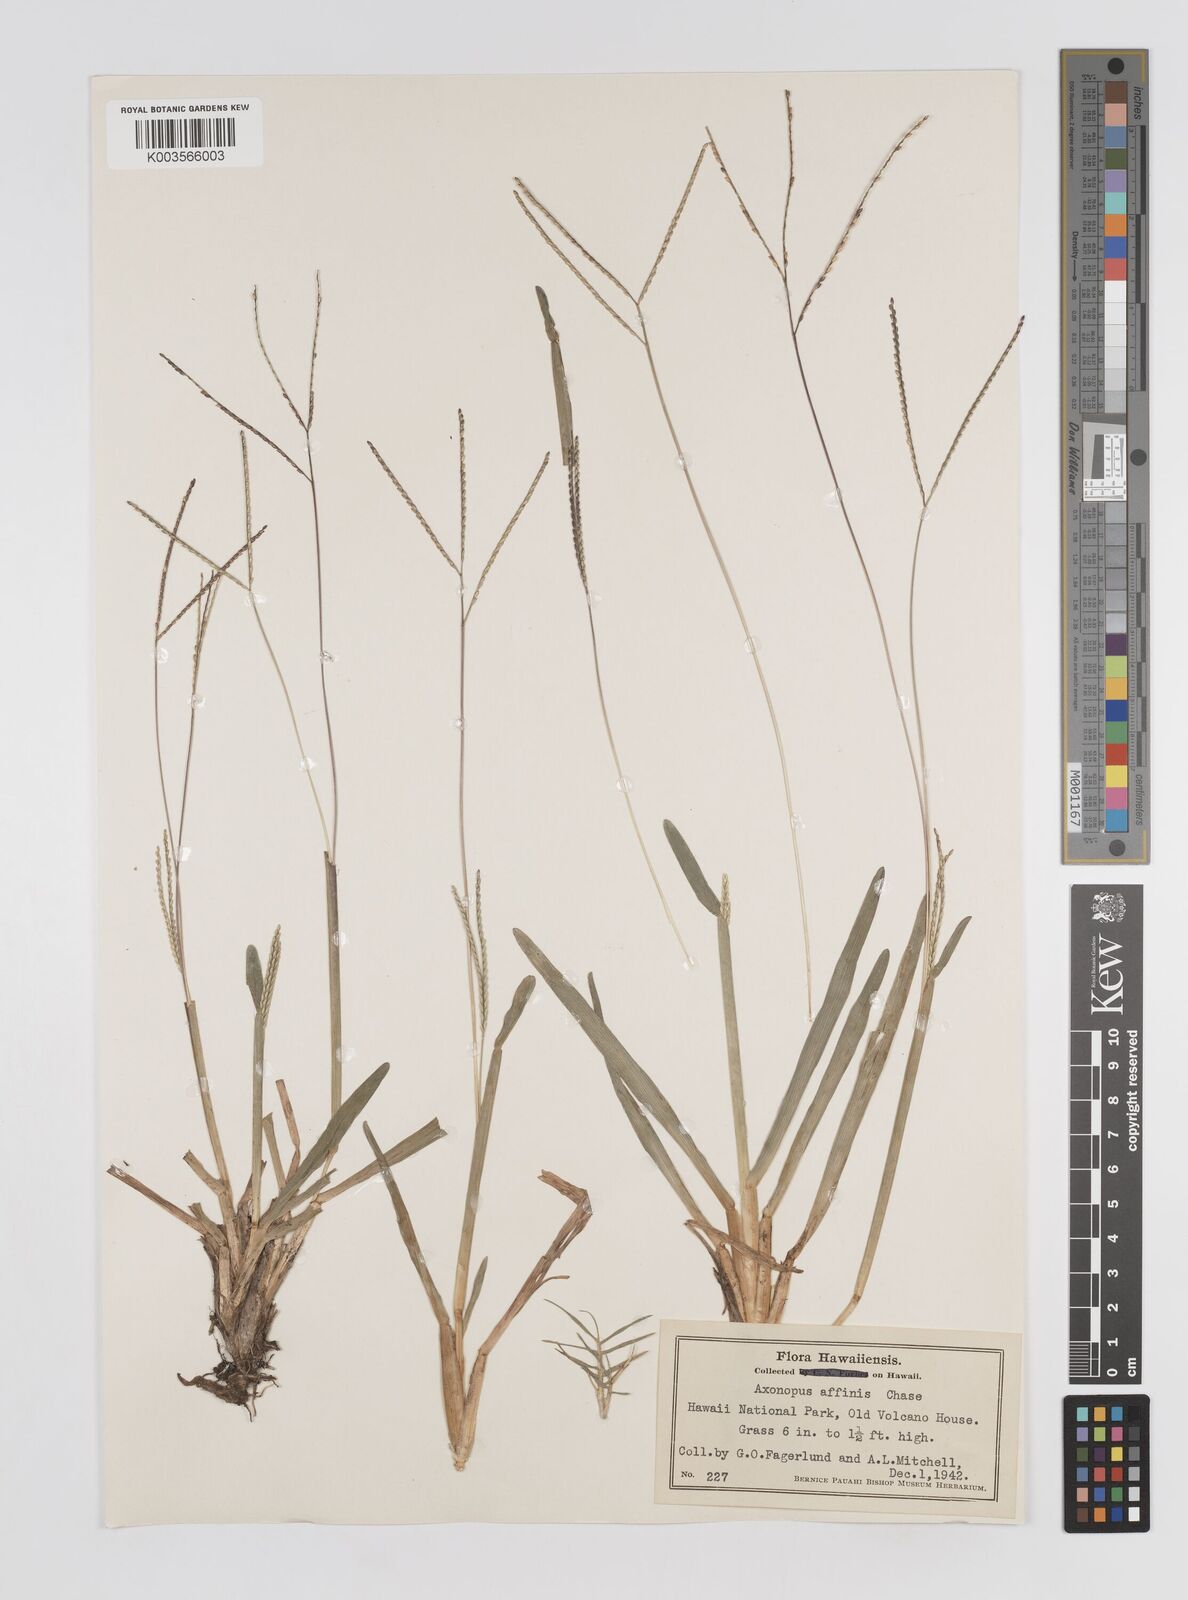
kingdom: Plantae
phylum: Tracheophyta
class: Liliopsida
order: Poales
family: Poaceae
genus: Axonopus
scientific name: Axonopus fissifolius
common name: Common carpetgrass
